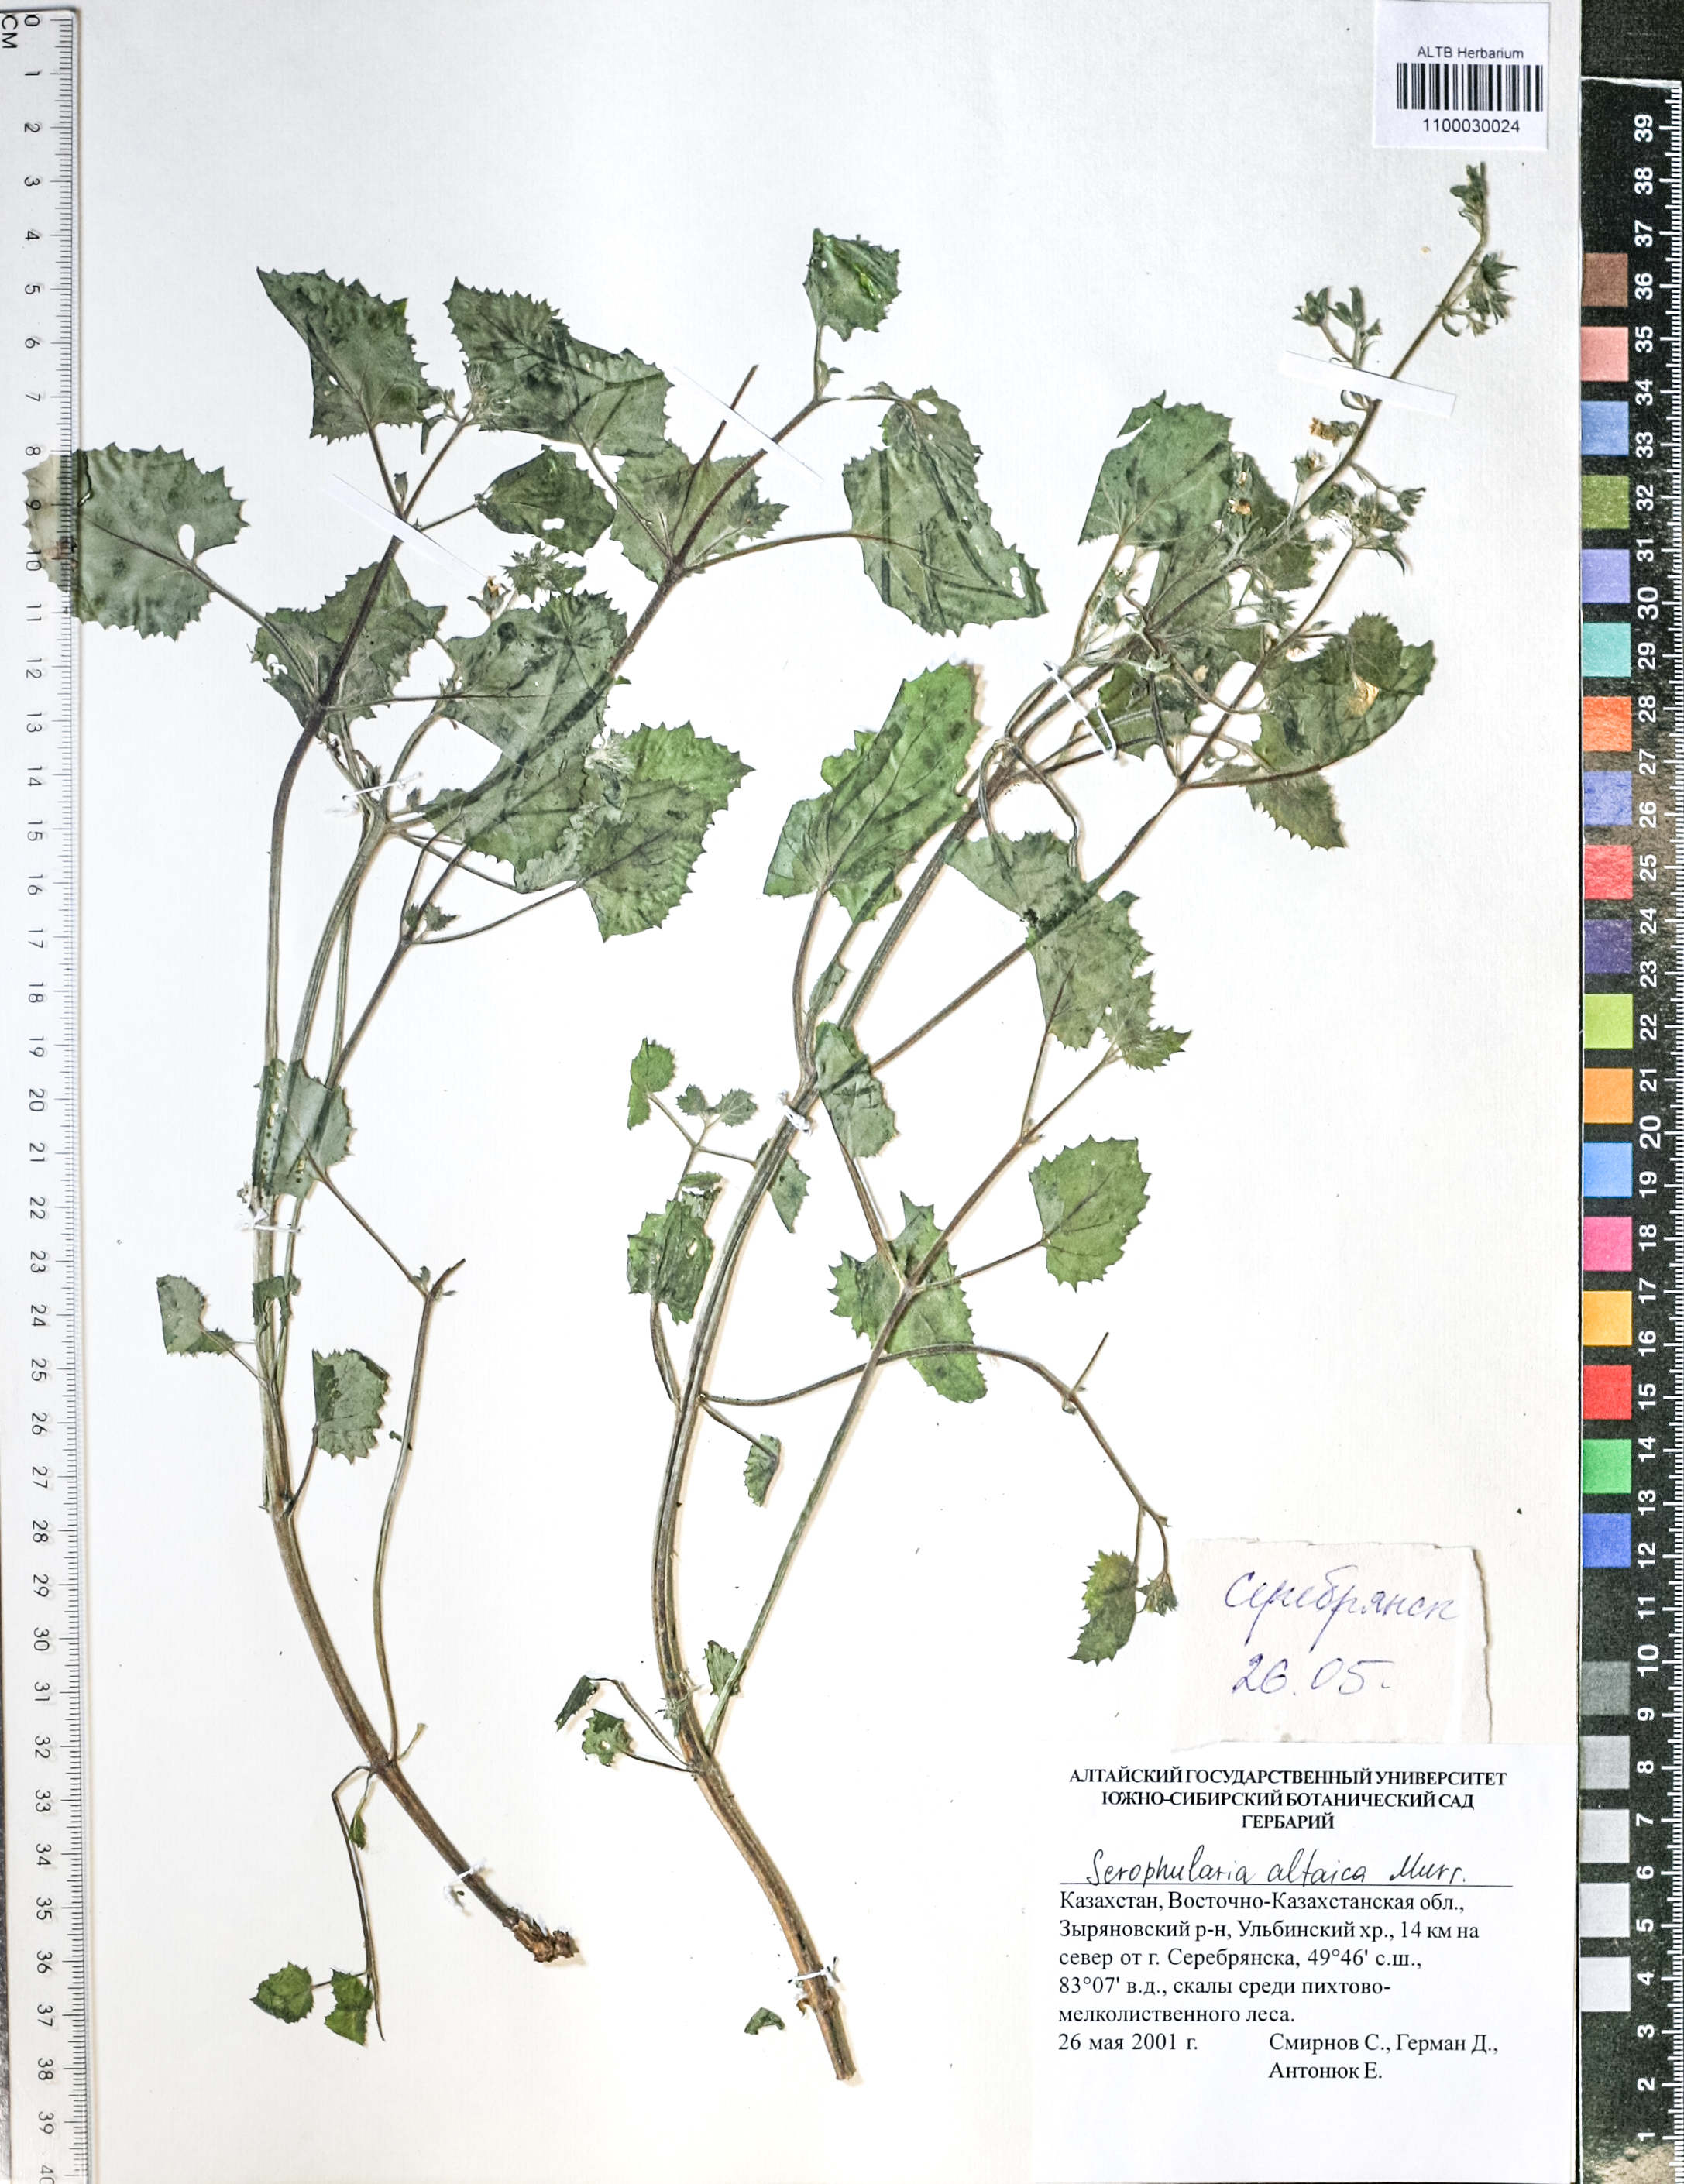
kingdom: Plantae
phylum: Tracheophyta
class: Magnoliopsida
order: Lamiales
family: Scrophulariaceae
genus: Scrophularia
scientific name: Scrophularia altaica
